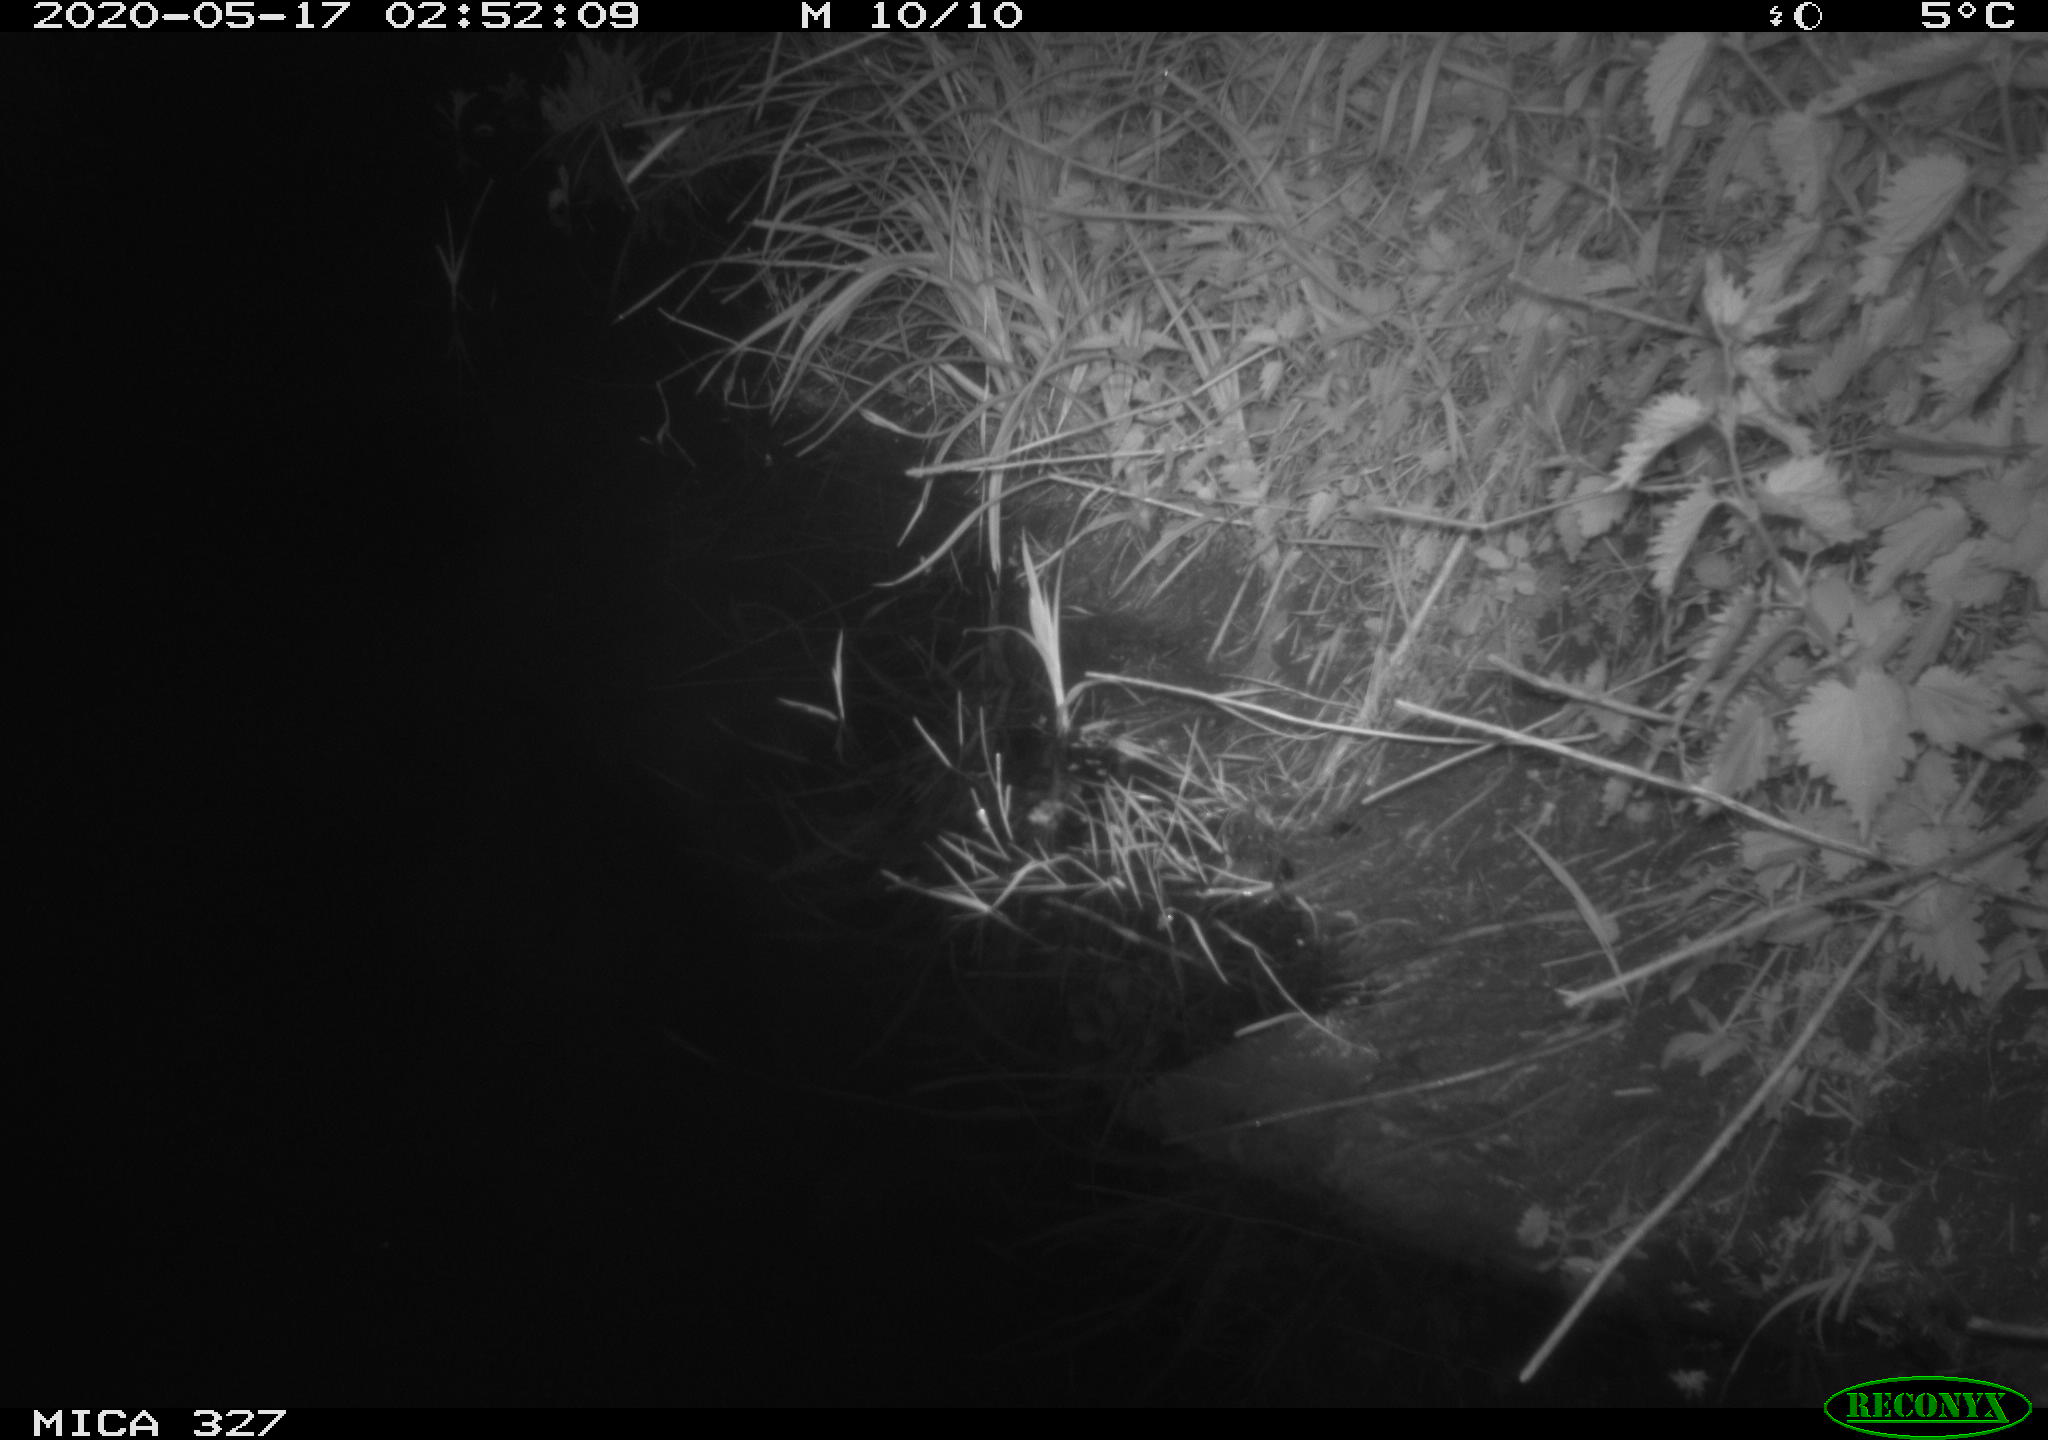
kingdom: Animalia
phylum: Chordata
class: Mammalia
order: Rodentia
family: Muridae
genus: Rattus
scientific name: Rattus norvegicus
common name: Brown rat
